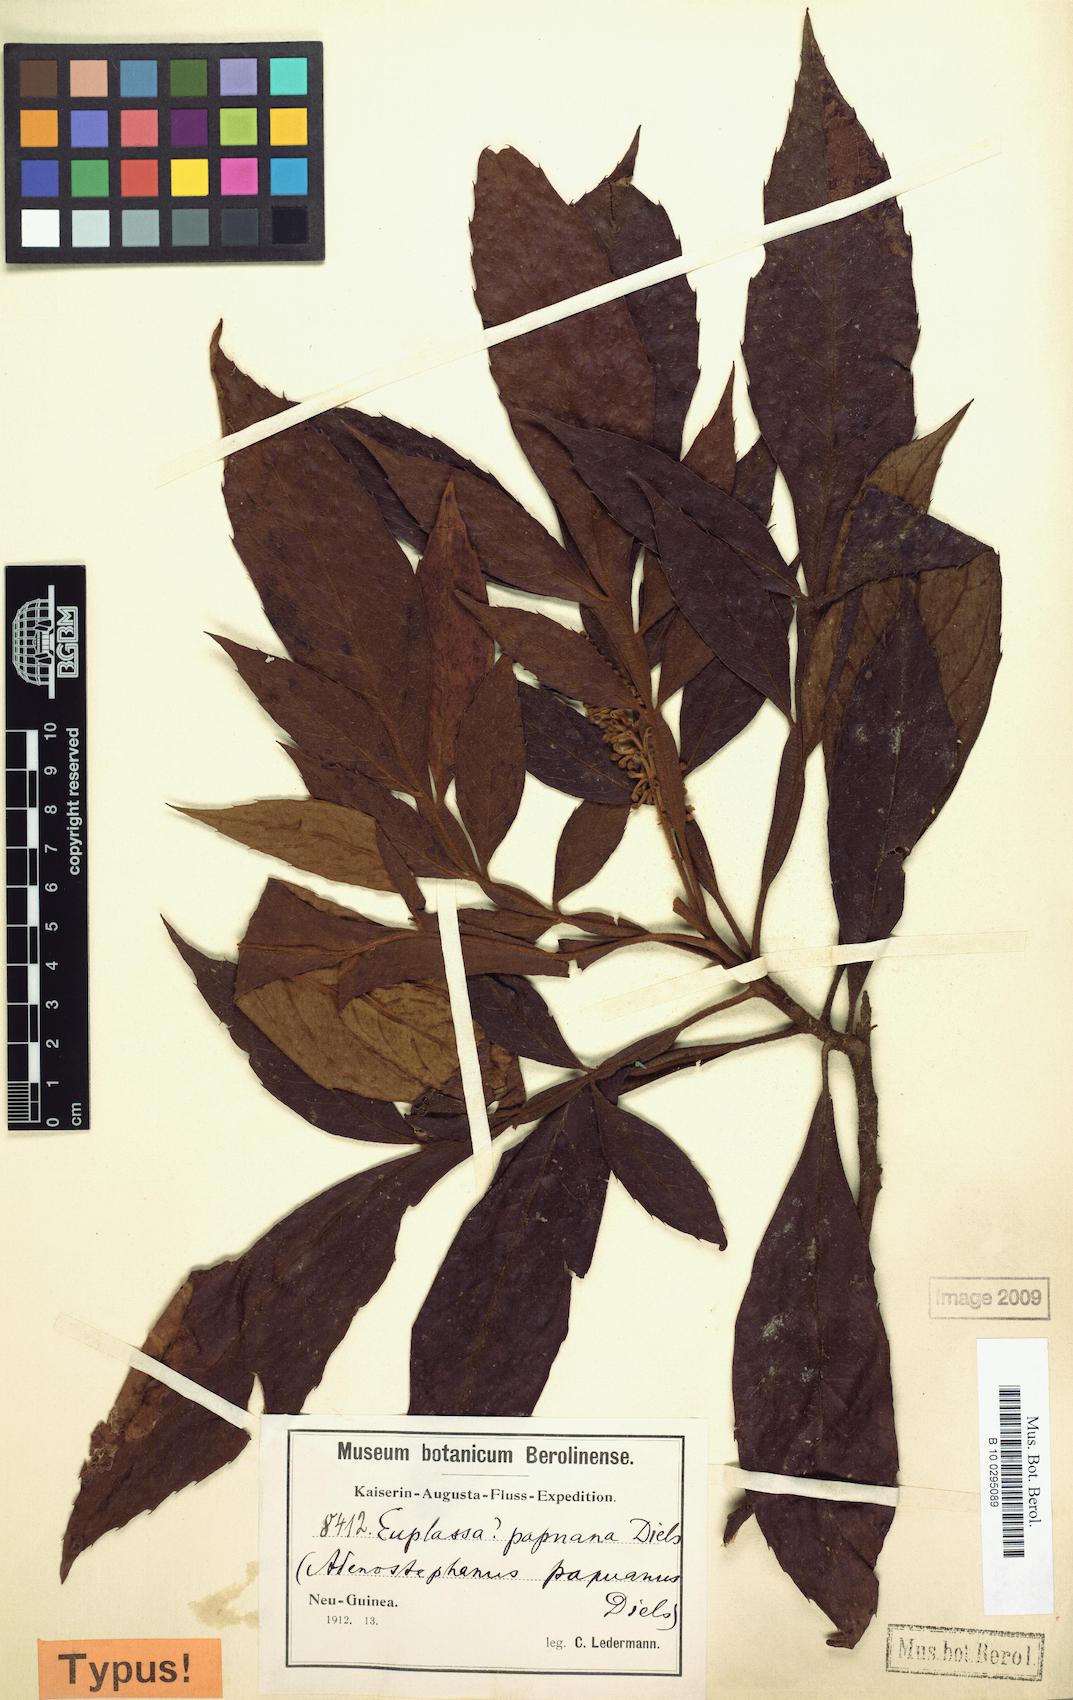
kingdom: Plantae
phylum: Tracheophyta
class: Magnoliopsida
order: Proteales
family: Proteaceae
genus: Turrillia
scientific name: Turrillia papuana
